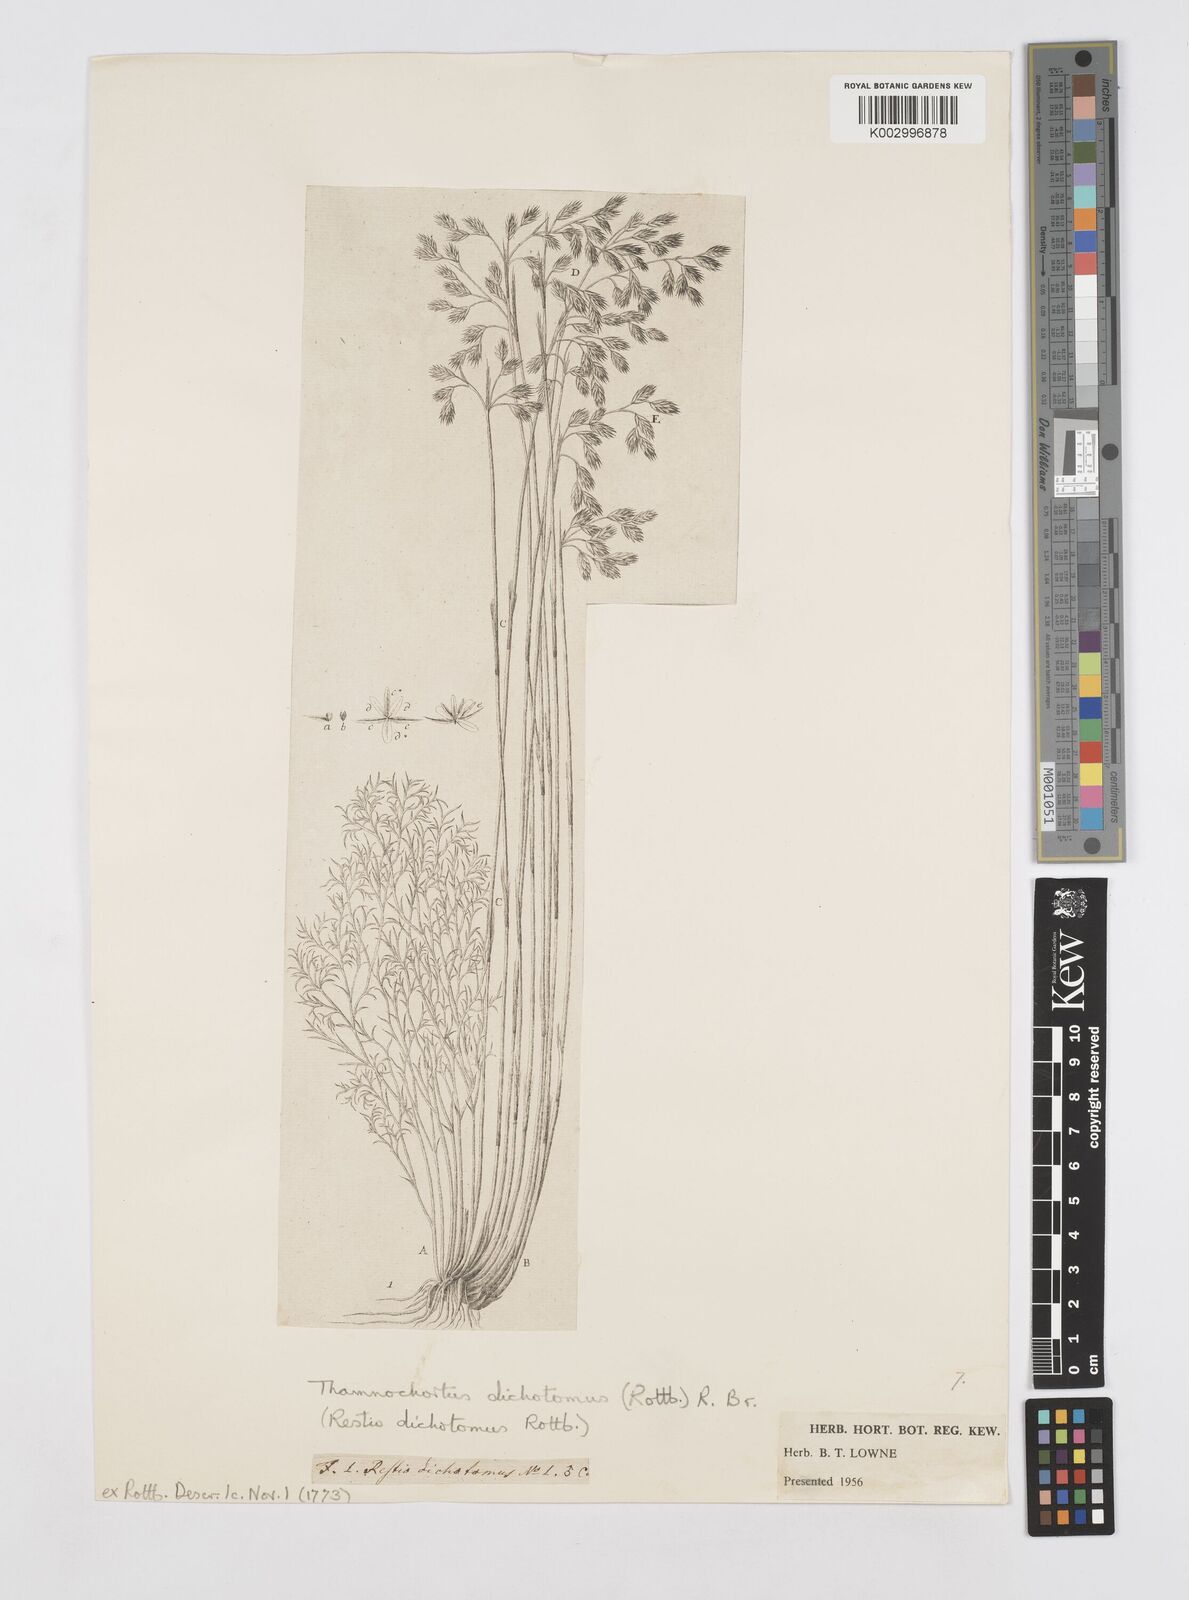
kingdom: Plantae
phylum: Tracheophyta
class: Liliopsida
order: Poales
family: Restionaceae
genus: Thamnochortus
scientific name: Thamnochortus lucens
